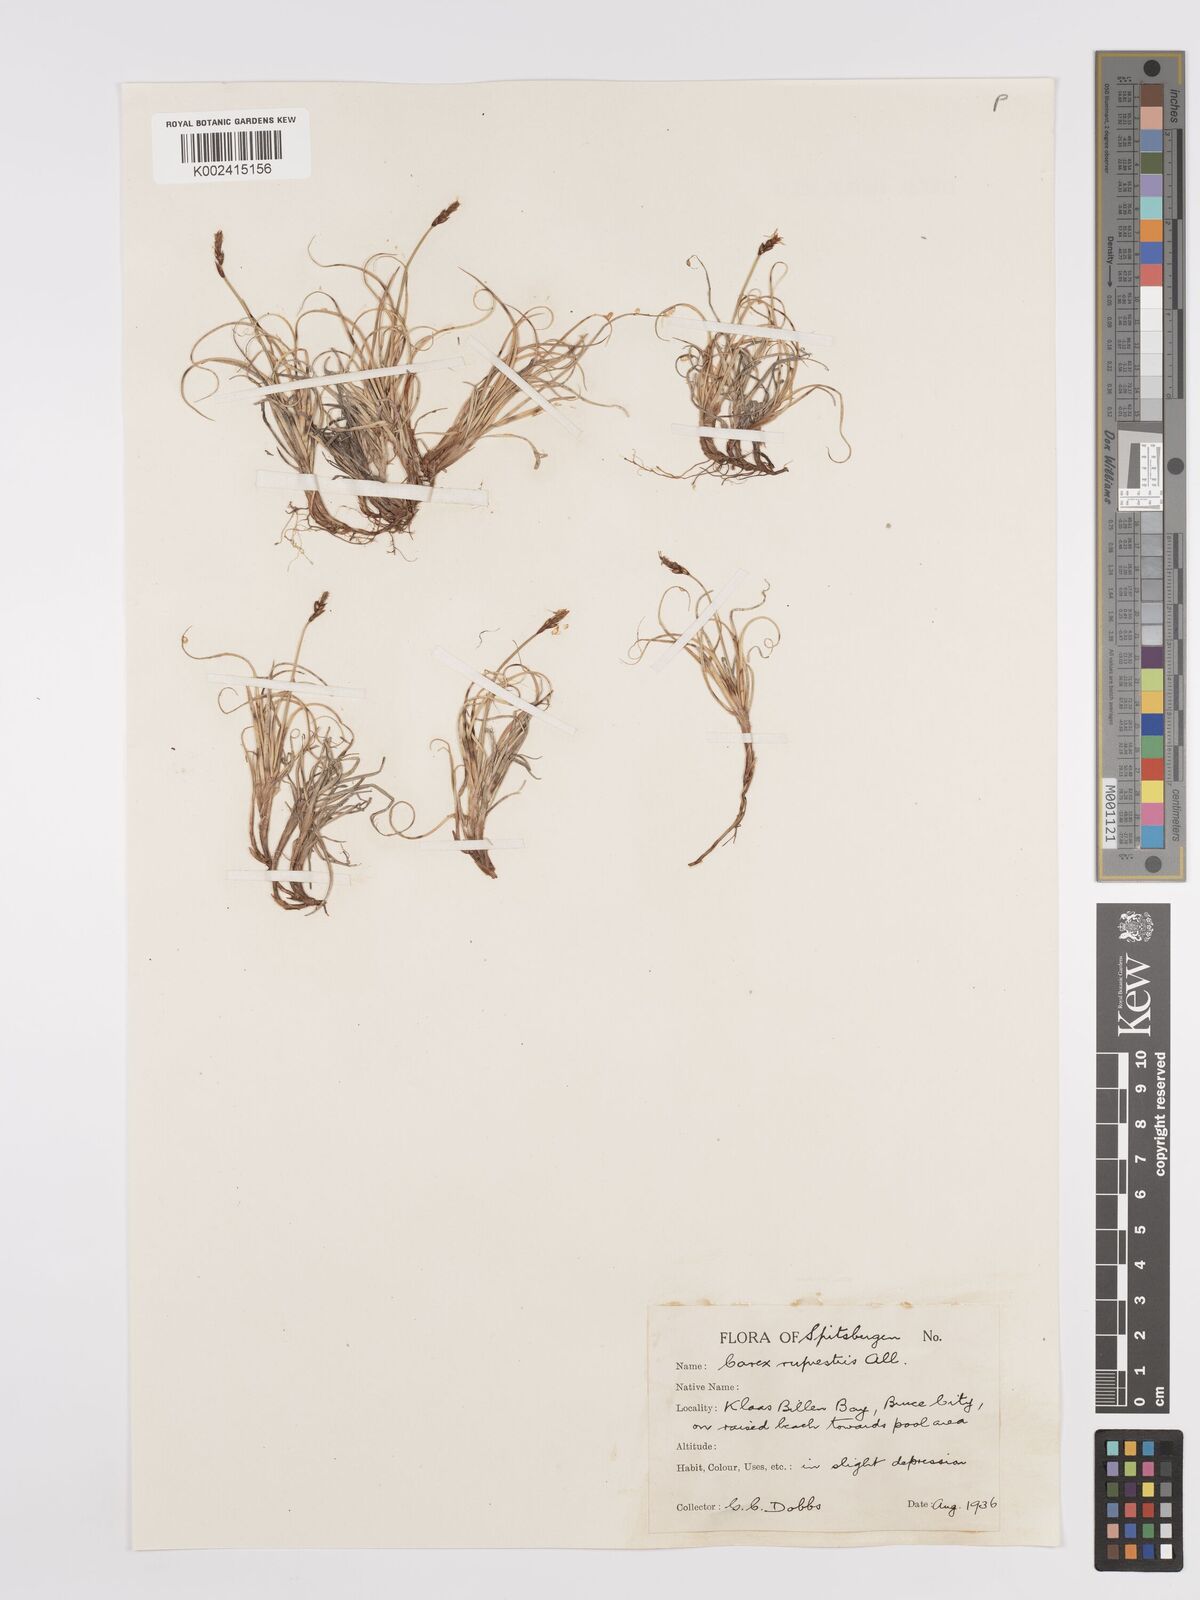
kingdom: Plantae
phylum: Tracheophyta
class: Liliopsida
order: Poales
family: Cyperaceae
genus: Carex
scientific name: Carex rupestris
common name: Rock sedge
